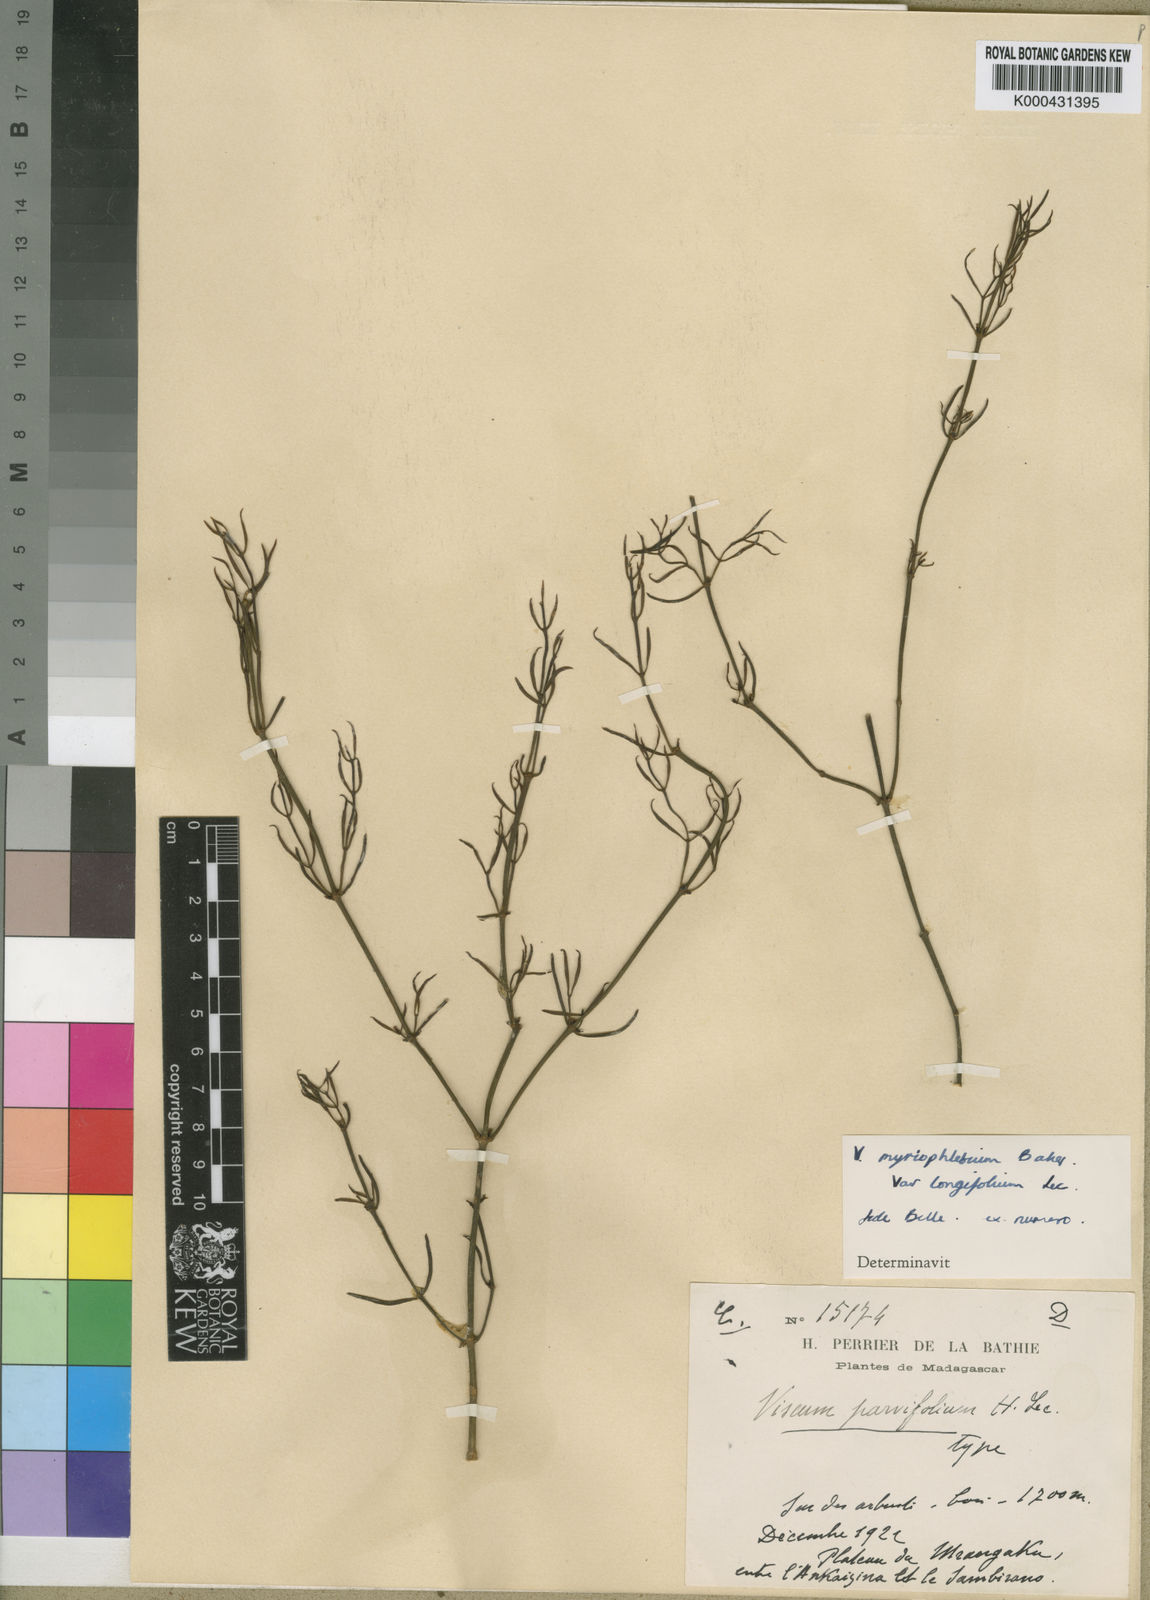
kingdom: Plantae
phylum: Tracheophyta
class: Magnoliopsida
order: Santalales
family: Viscaceae
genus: Viscum
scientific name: Viscum myriophlebium
